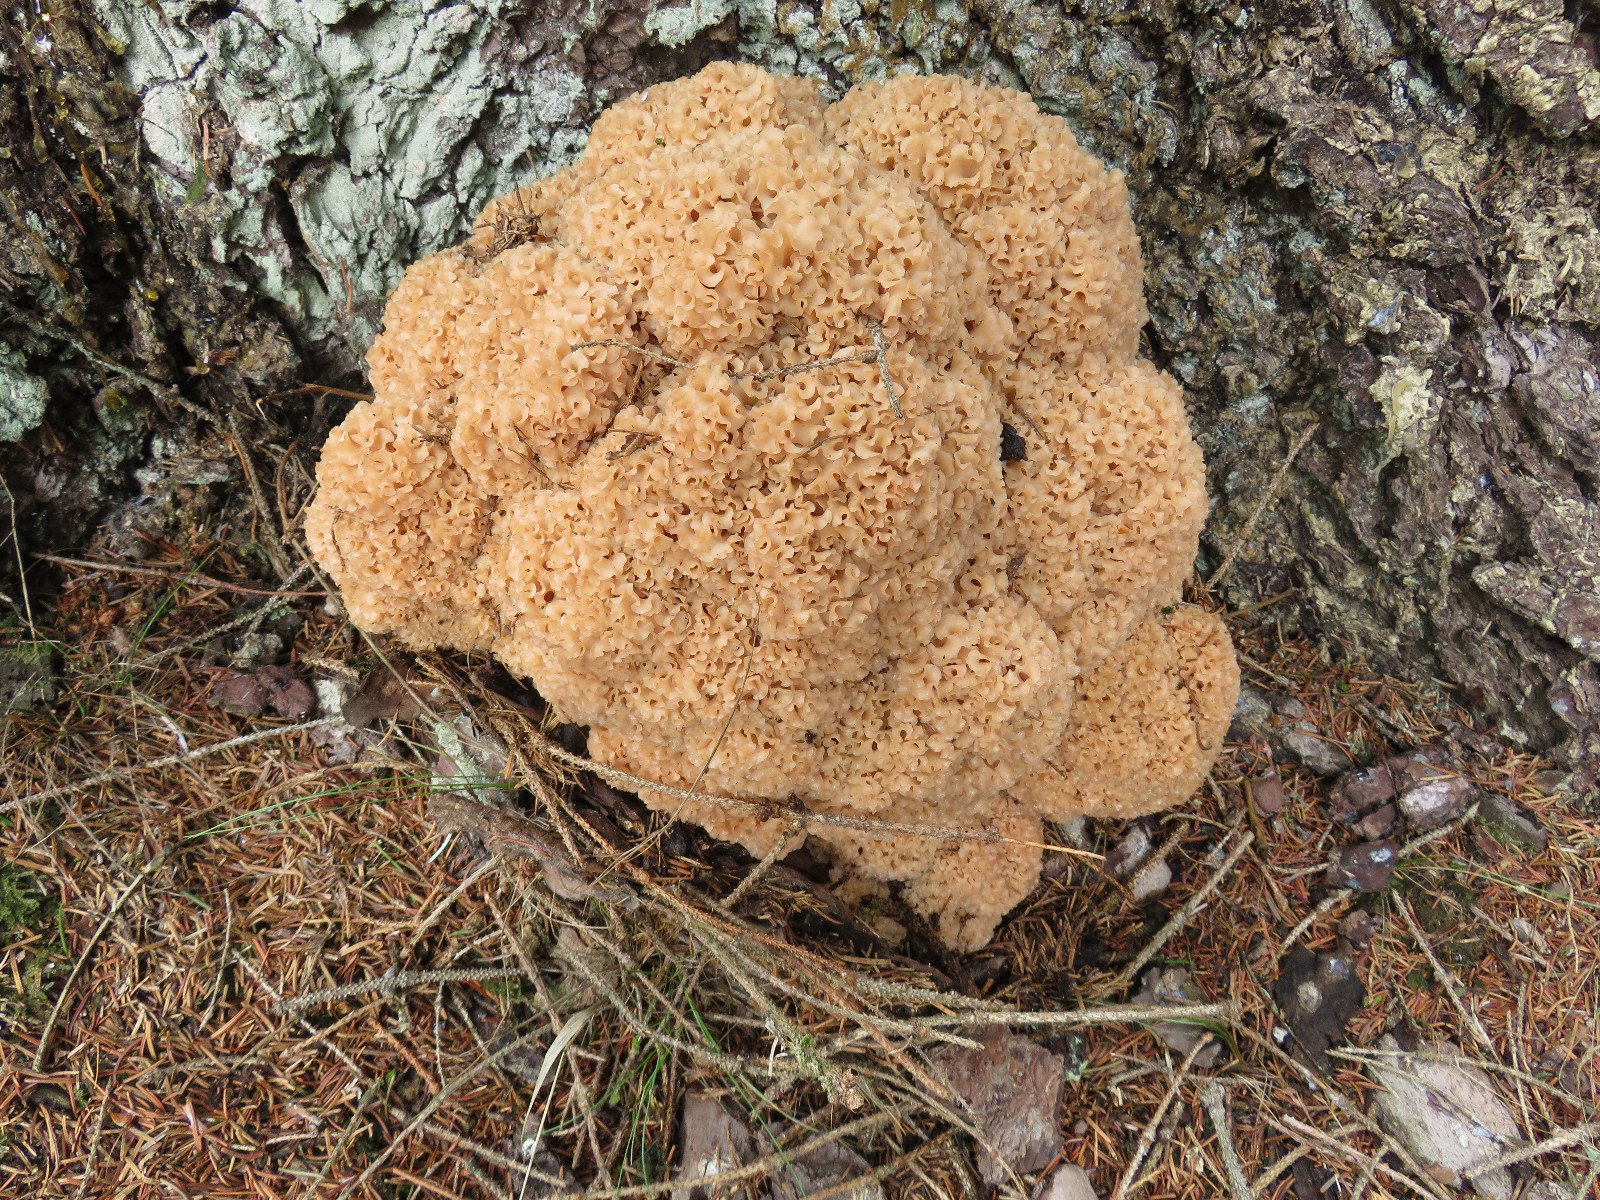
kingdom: Fungi
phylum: Basidiomycota
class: Agaricomycetes
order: Polyporales
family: Sparassidaceae
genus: Sparassis
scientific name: Sparassis crispa
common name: kruset blomkålssvamp
